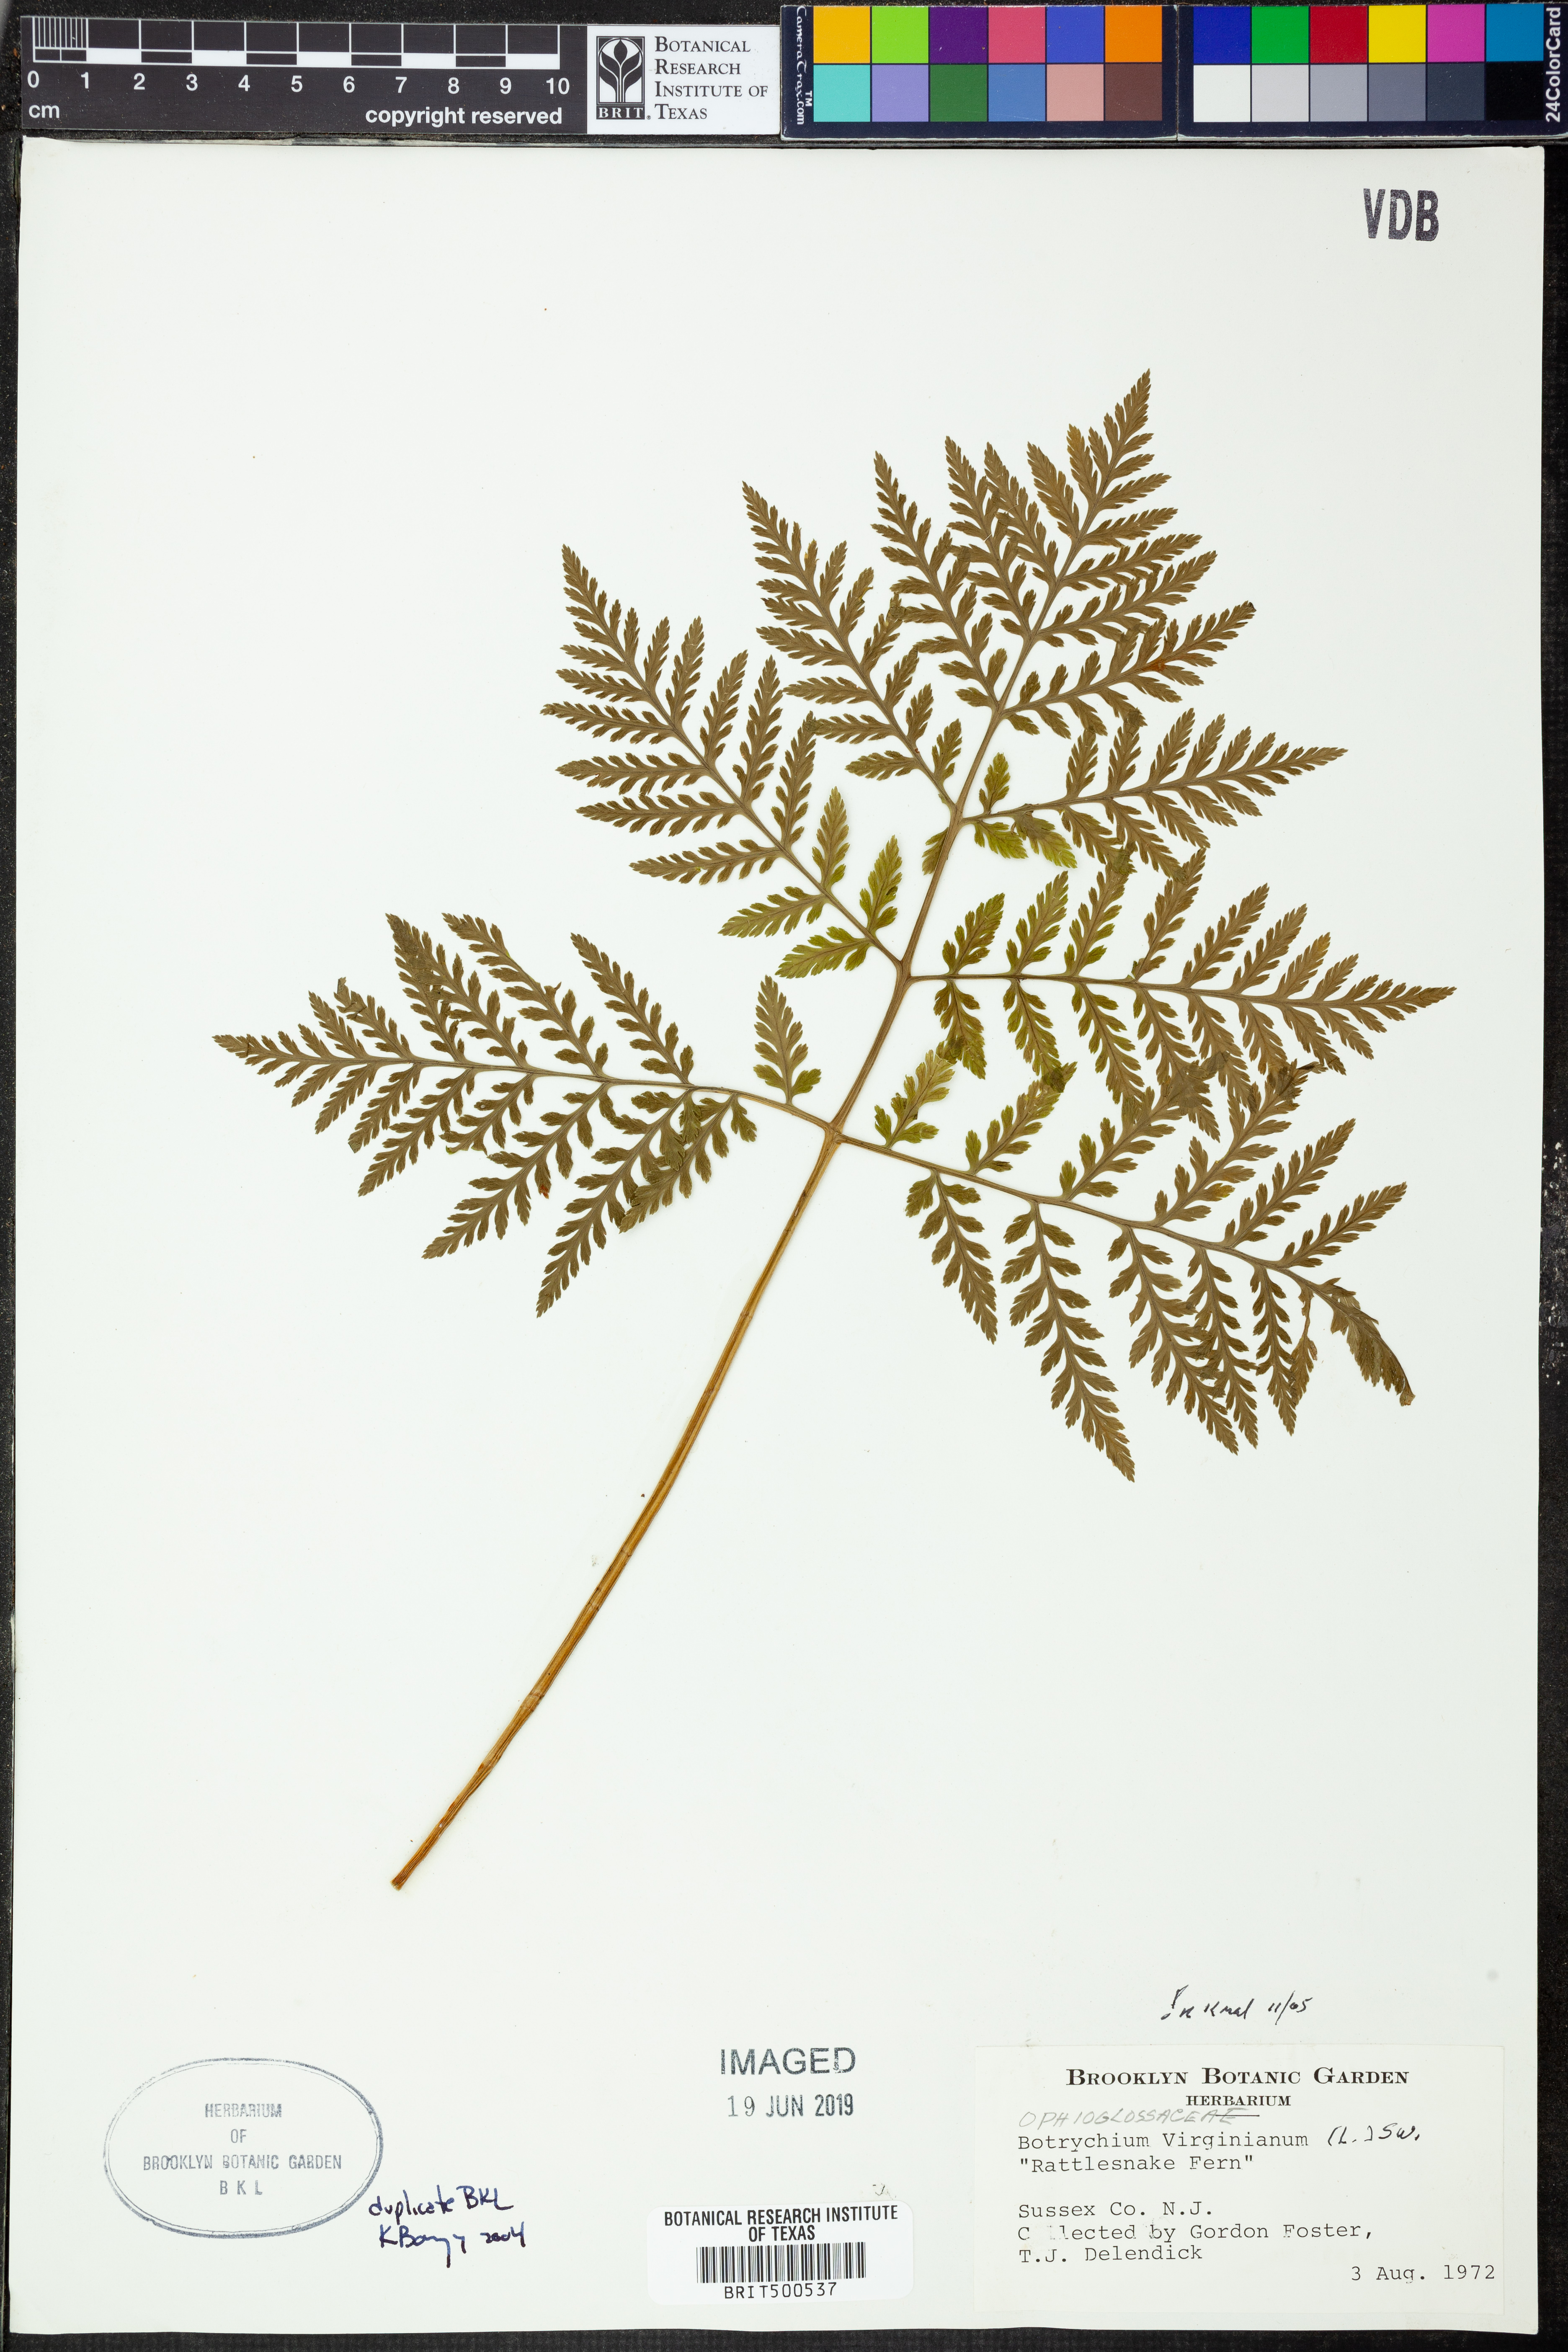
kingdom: Plantae
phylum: Tracheophyta
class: Polypodiopsida
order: Ophioglossales
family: Ophioglossaceae
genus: Botrypus
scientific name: Botrypus virginianus
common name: Common grapefern
